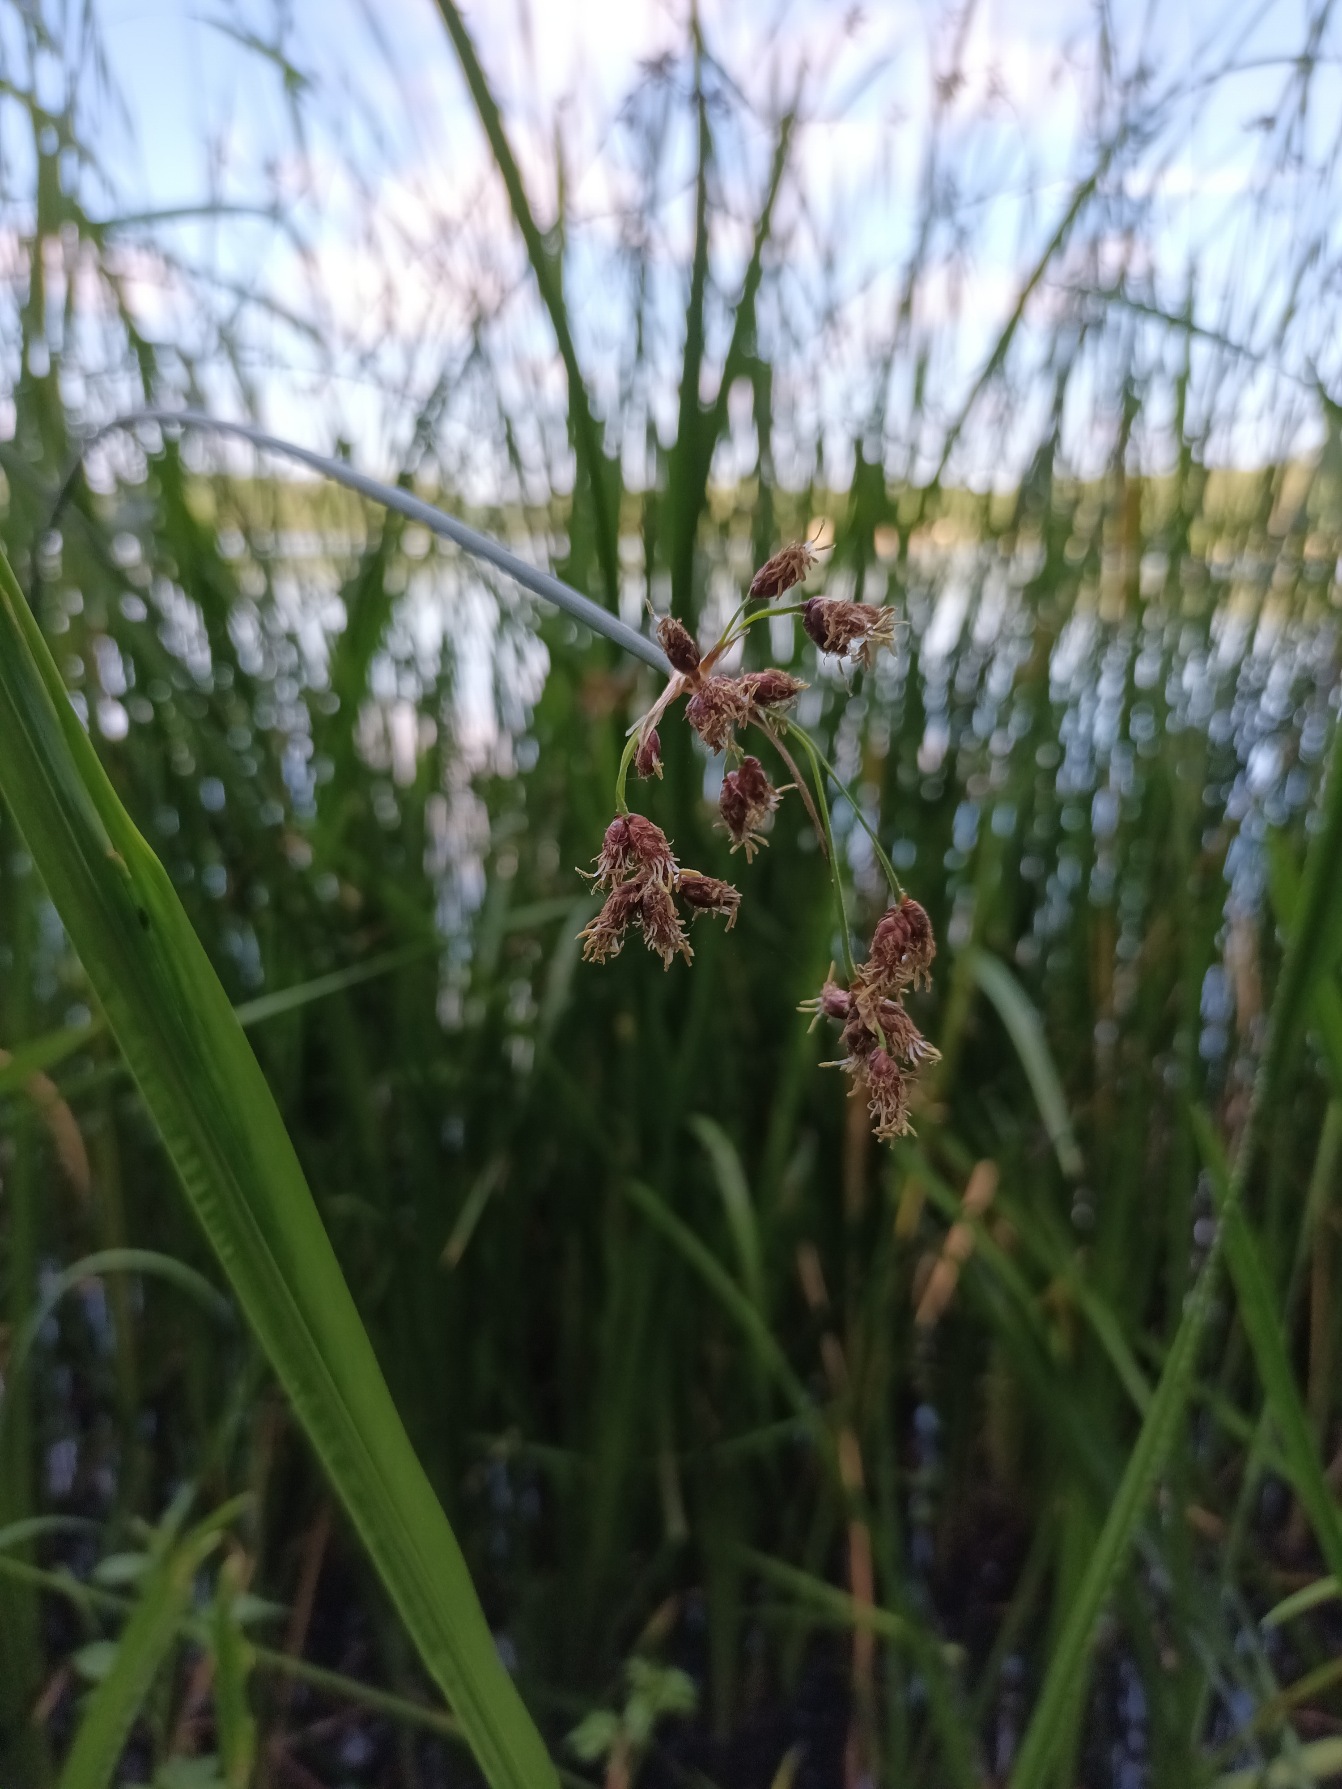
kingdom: Plantae
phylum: Tracheophyta
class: Liliopsida
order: Poales
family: Cyperaceae
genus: Schoenoplectus
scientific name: Schoenoplectus lacustris
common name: Sø-kogleaks
